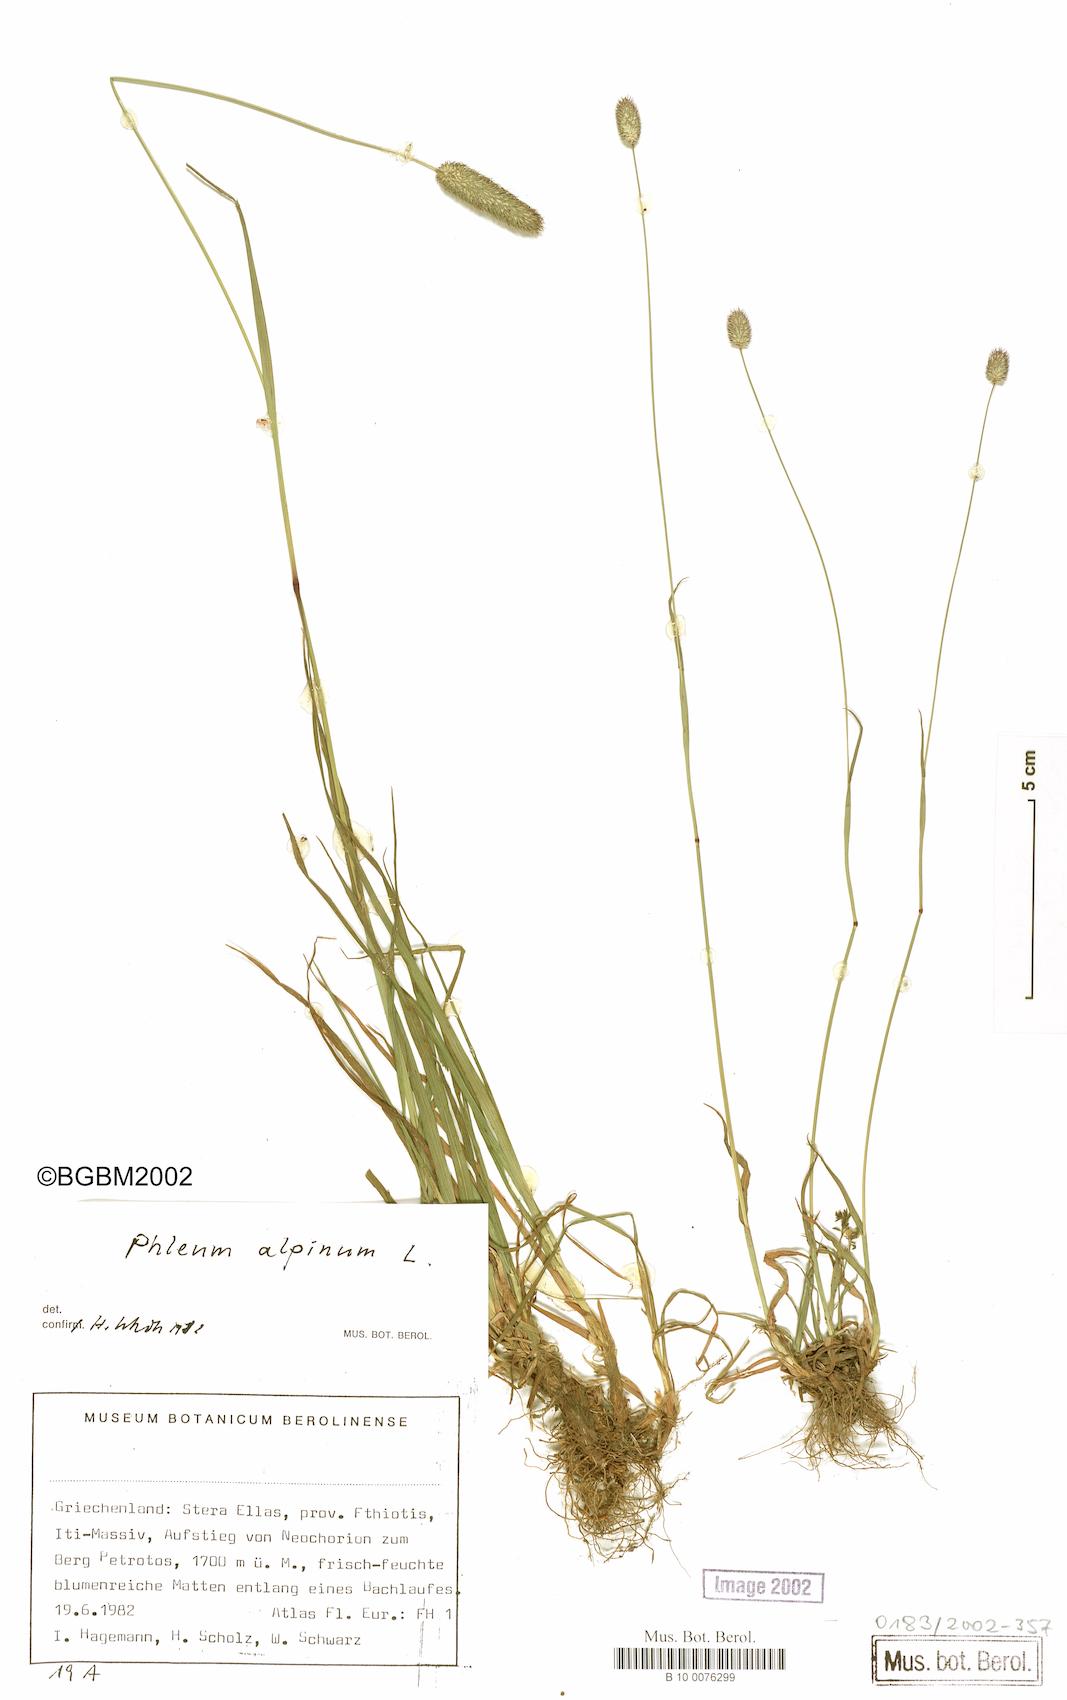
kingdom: Plantae
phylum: Tracheophyta
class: Liliopsida
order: Poales
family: Poaceae
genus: Phleum
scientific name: Phleum alpinum
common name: Alpine cat's-tail
